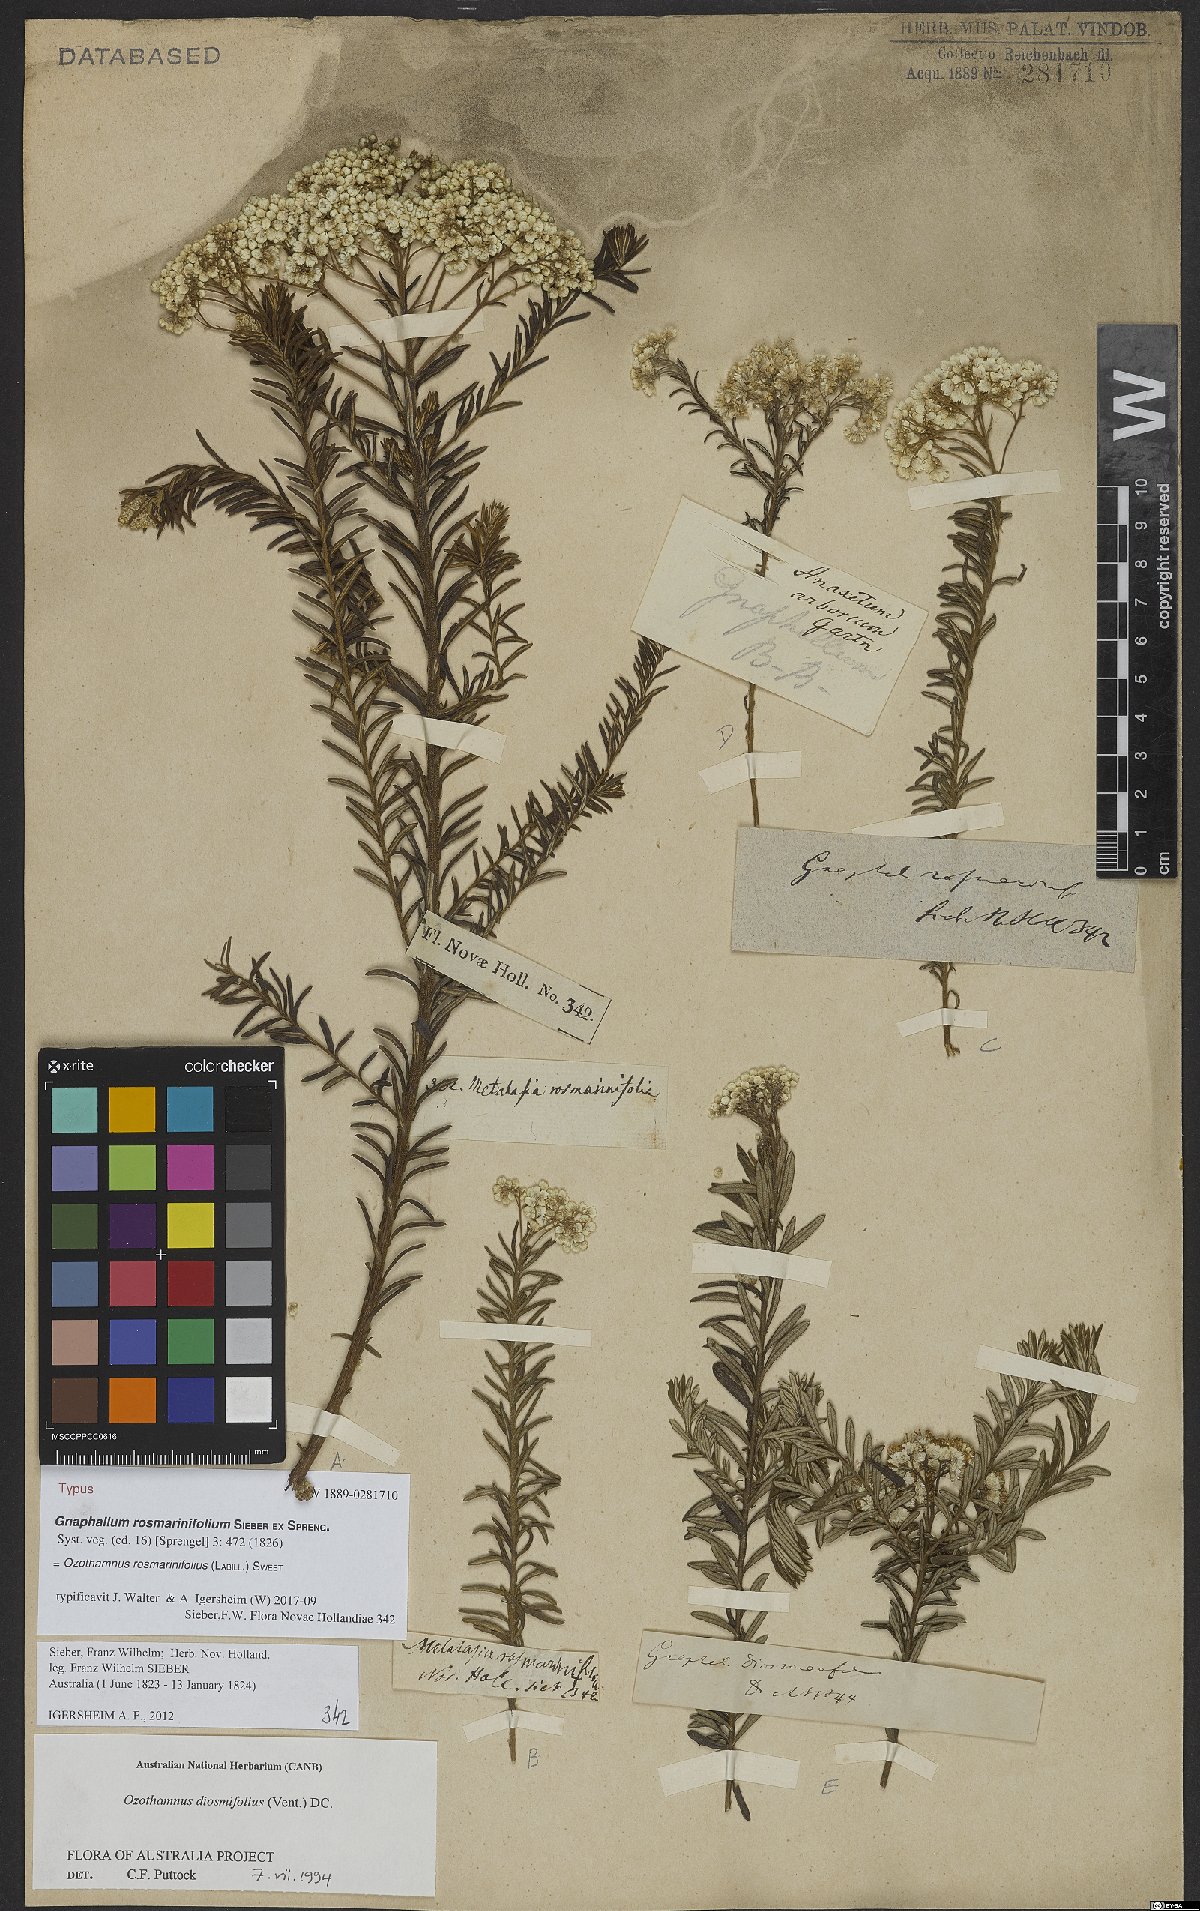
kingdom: Plantae
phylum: Tracheophyta
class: Magnoliopsida
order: Asterales
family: Asteraceae
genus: Ozothamnus
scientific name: Ozothamnus rosmarinifolius
